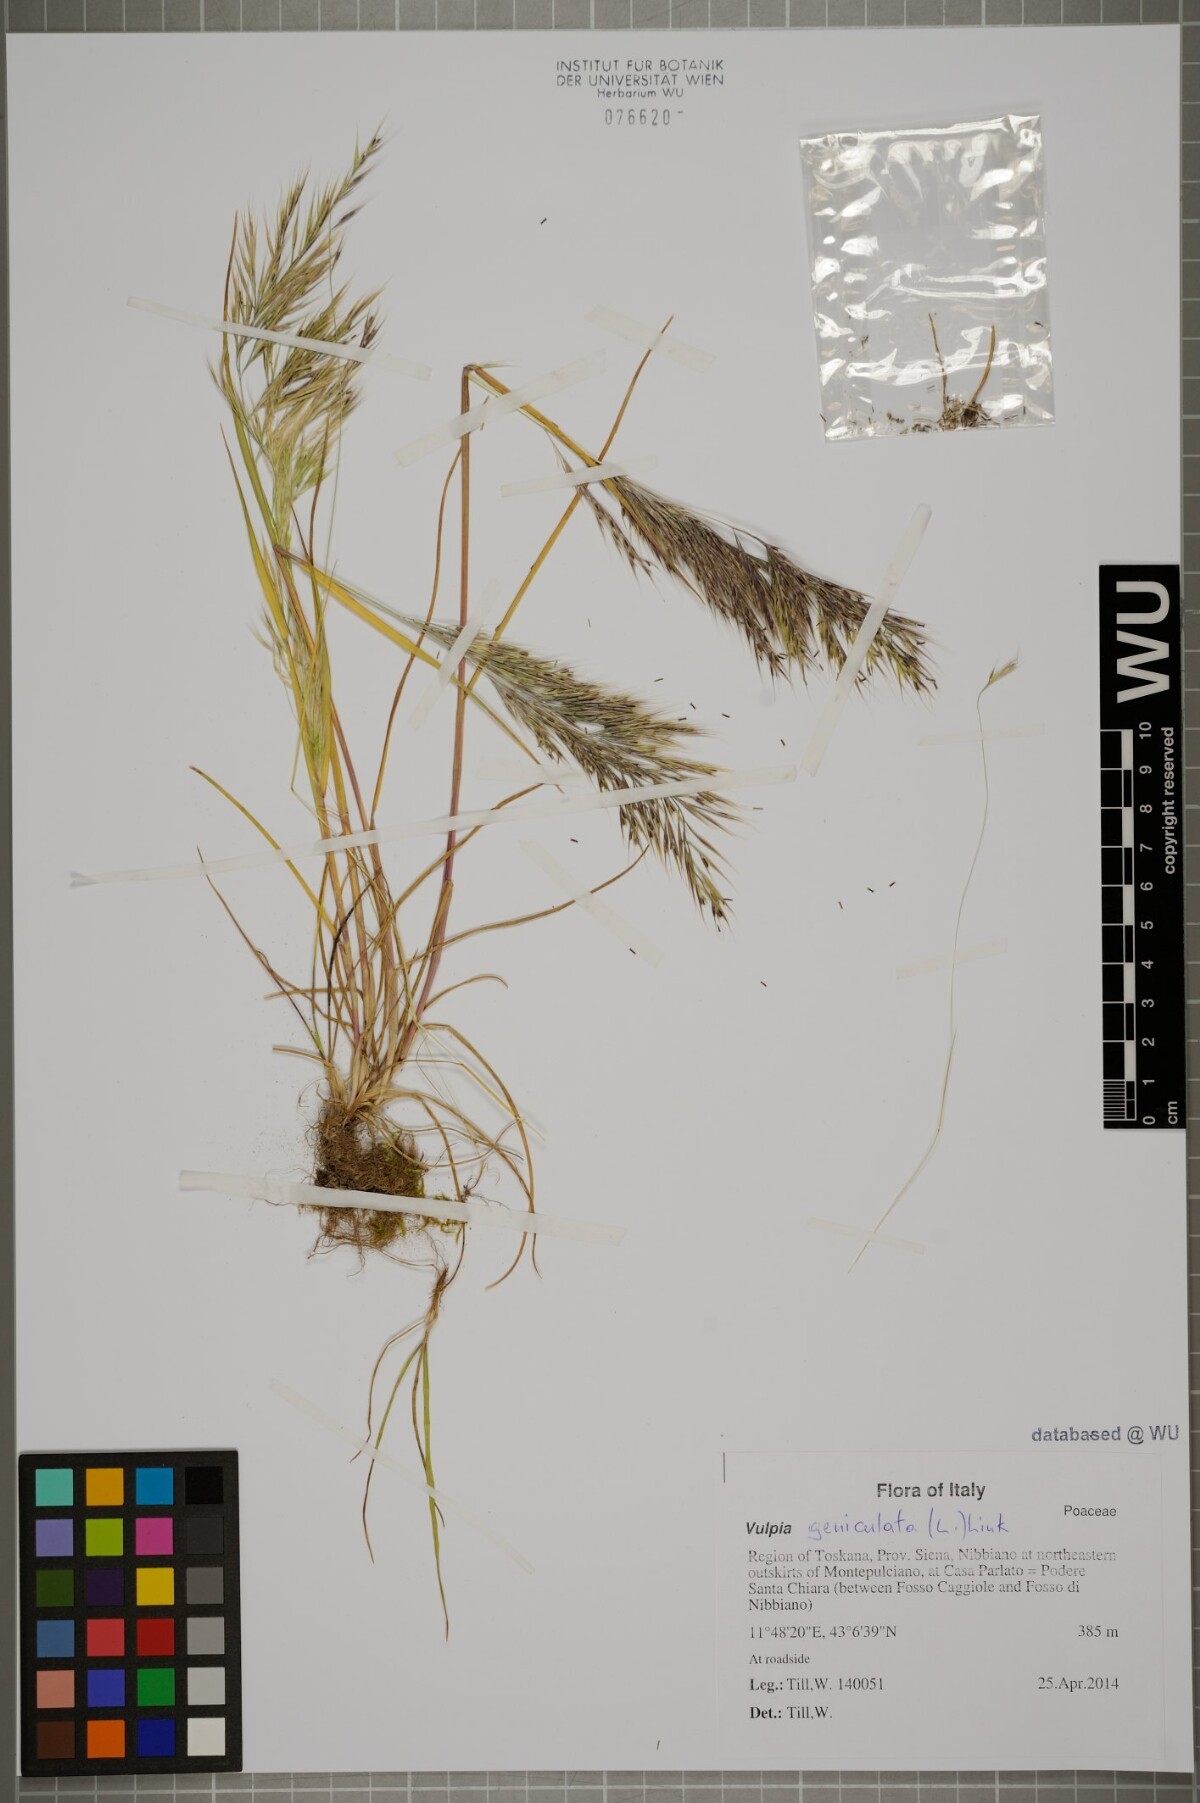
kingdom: Plantae
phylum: Tracheophyta
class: Liliopsida
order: Poales
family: Poaceae
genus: Festuca
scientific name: Festuca geniculata
